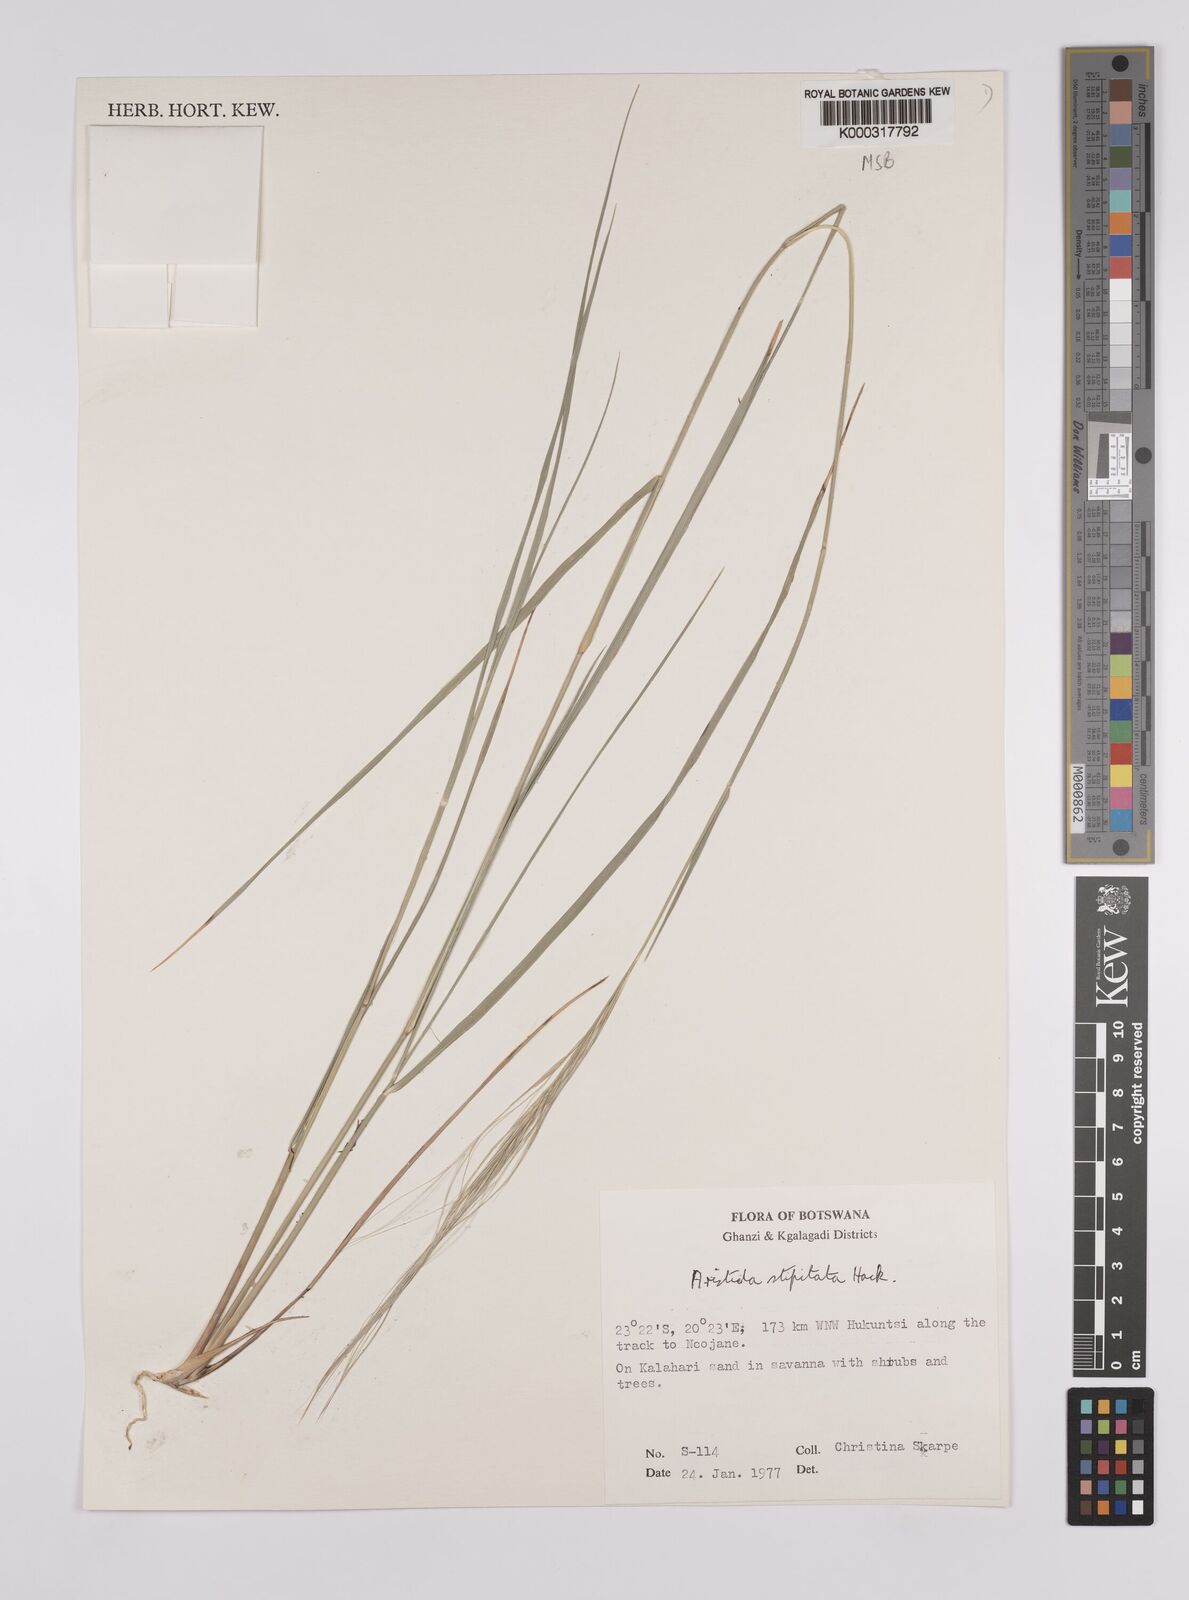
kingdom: Plantae
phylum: Tracheophyta
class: Liliopsida
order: Poales
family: Poaceae
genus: Aristida
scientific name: Aristida stipitata
